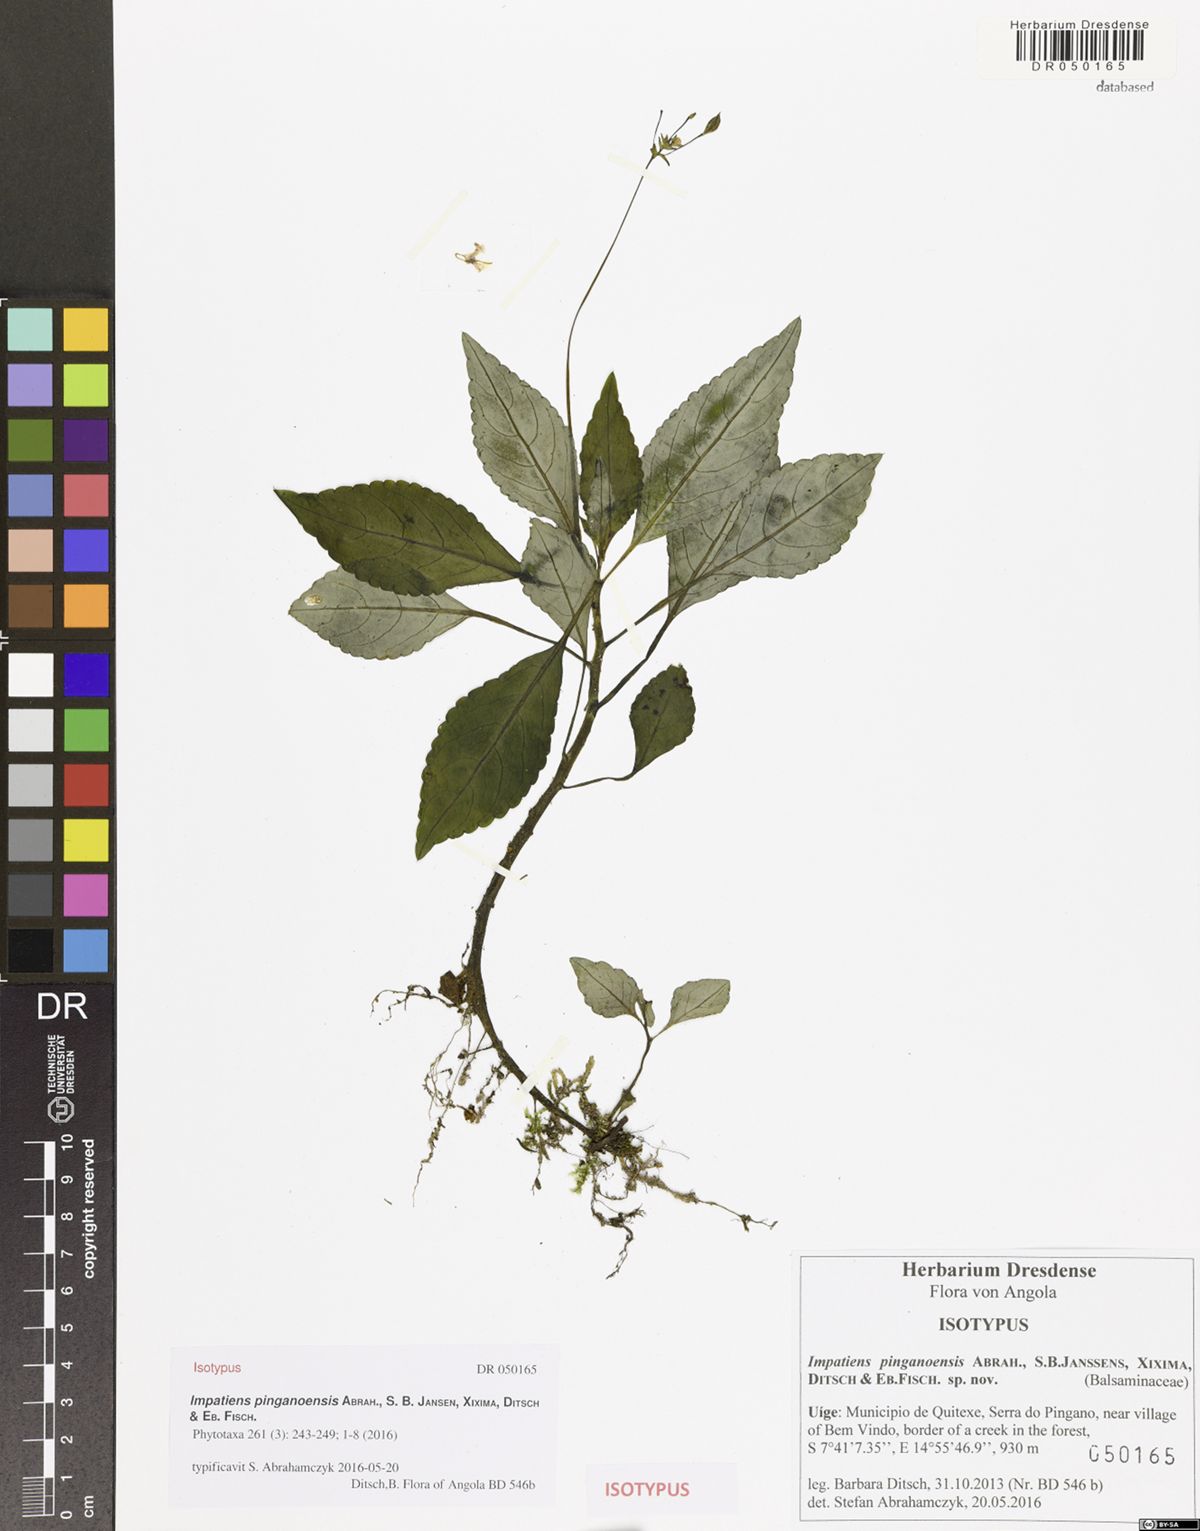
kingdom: Plantae
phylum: Tracheophyta
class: Magnoliopsida
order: Ericales
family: Balsaminaceae
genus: Impatiens
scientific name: Impatiens pinganoensis
